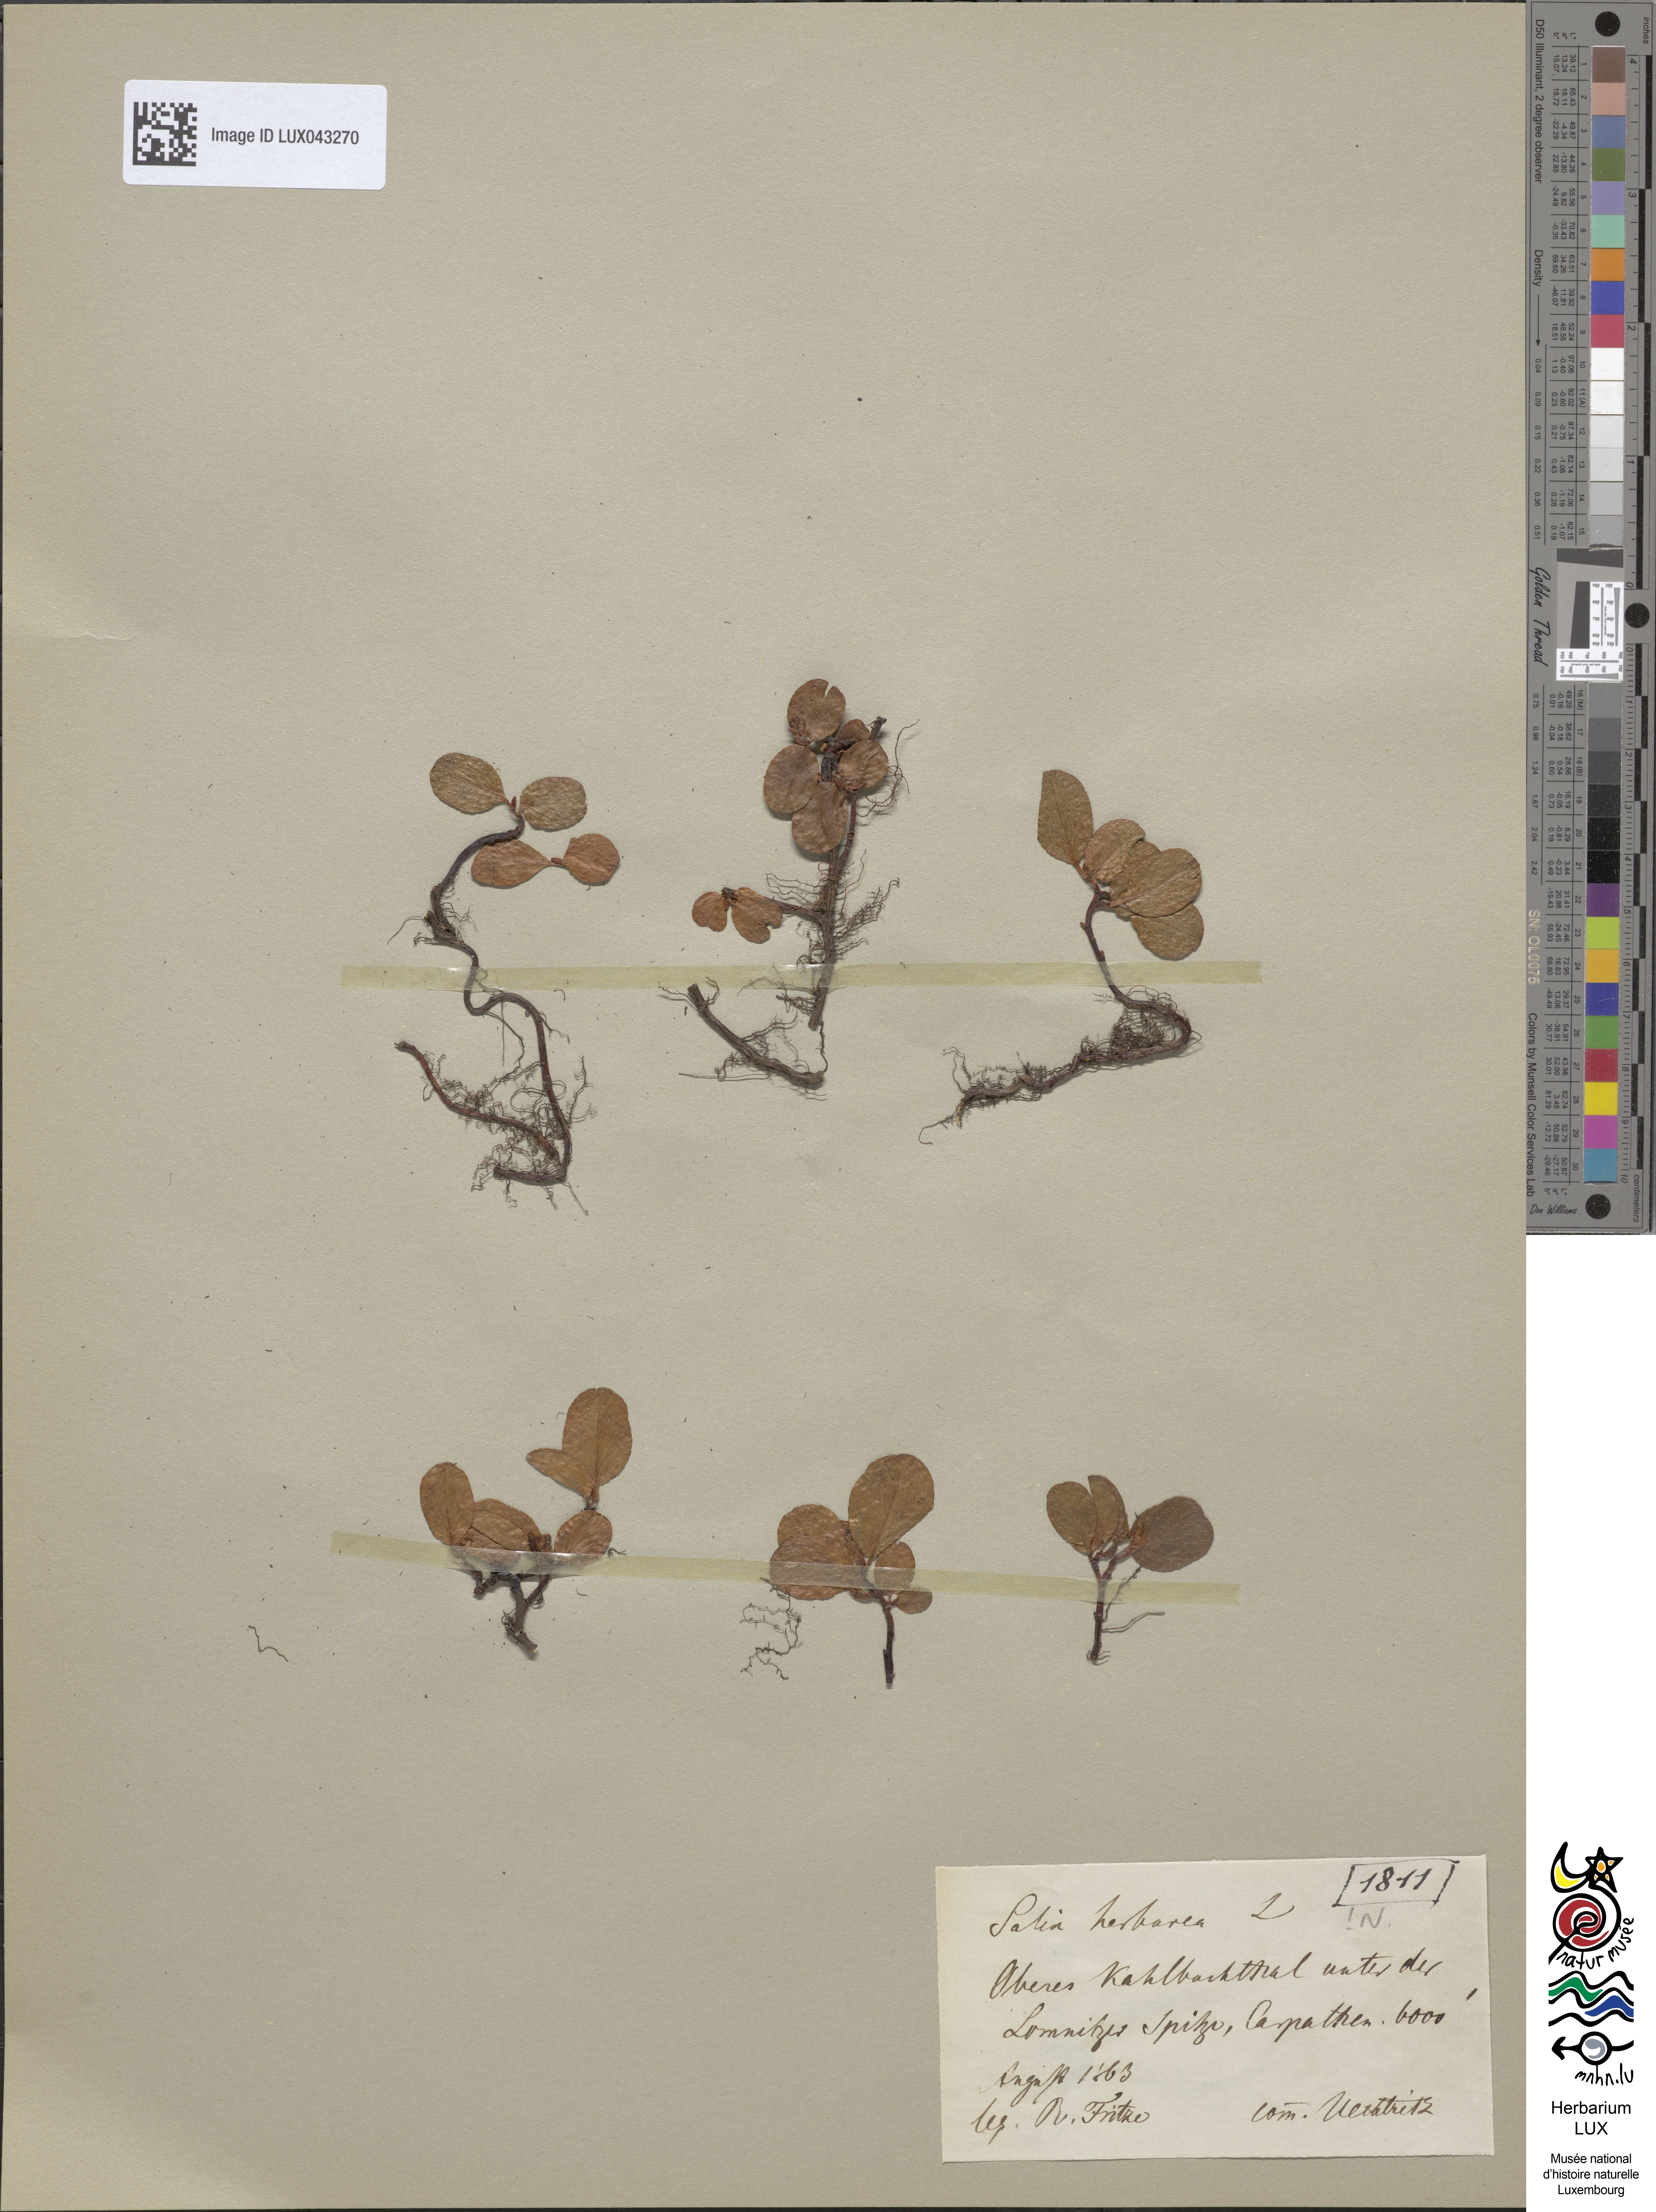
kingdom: Plantae
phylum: Tracheophyta
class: Magnoliopsida
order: Malpighiales
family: Salicaceae
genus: Salix
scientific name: Salix herbacea
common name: Dwarf willow
